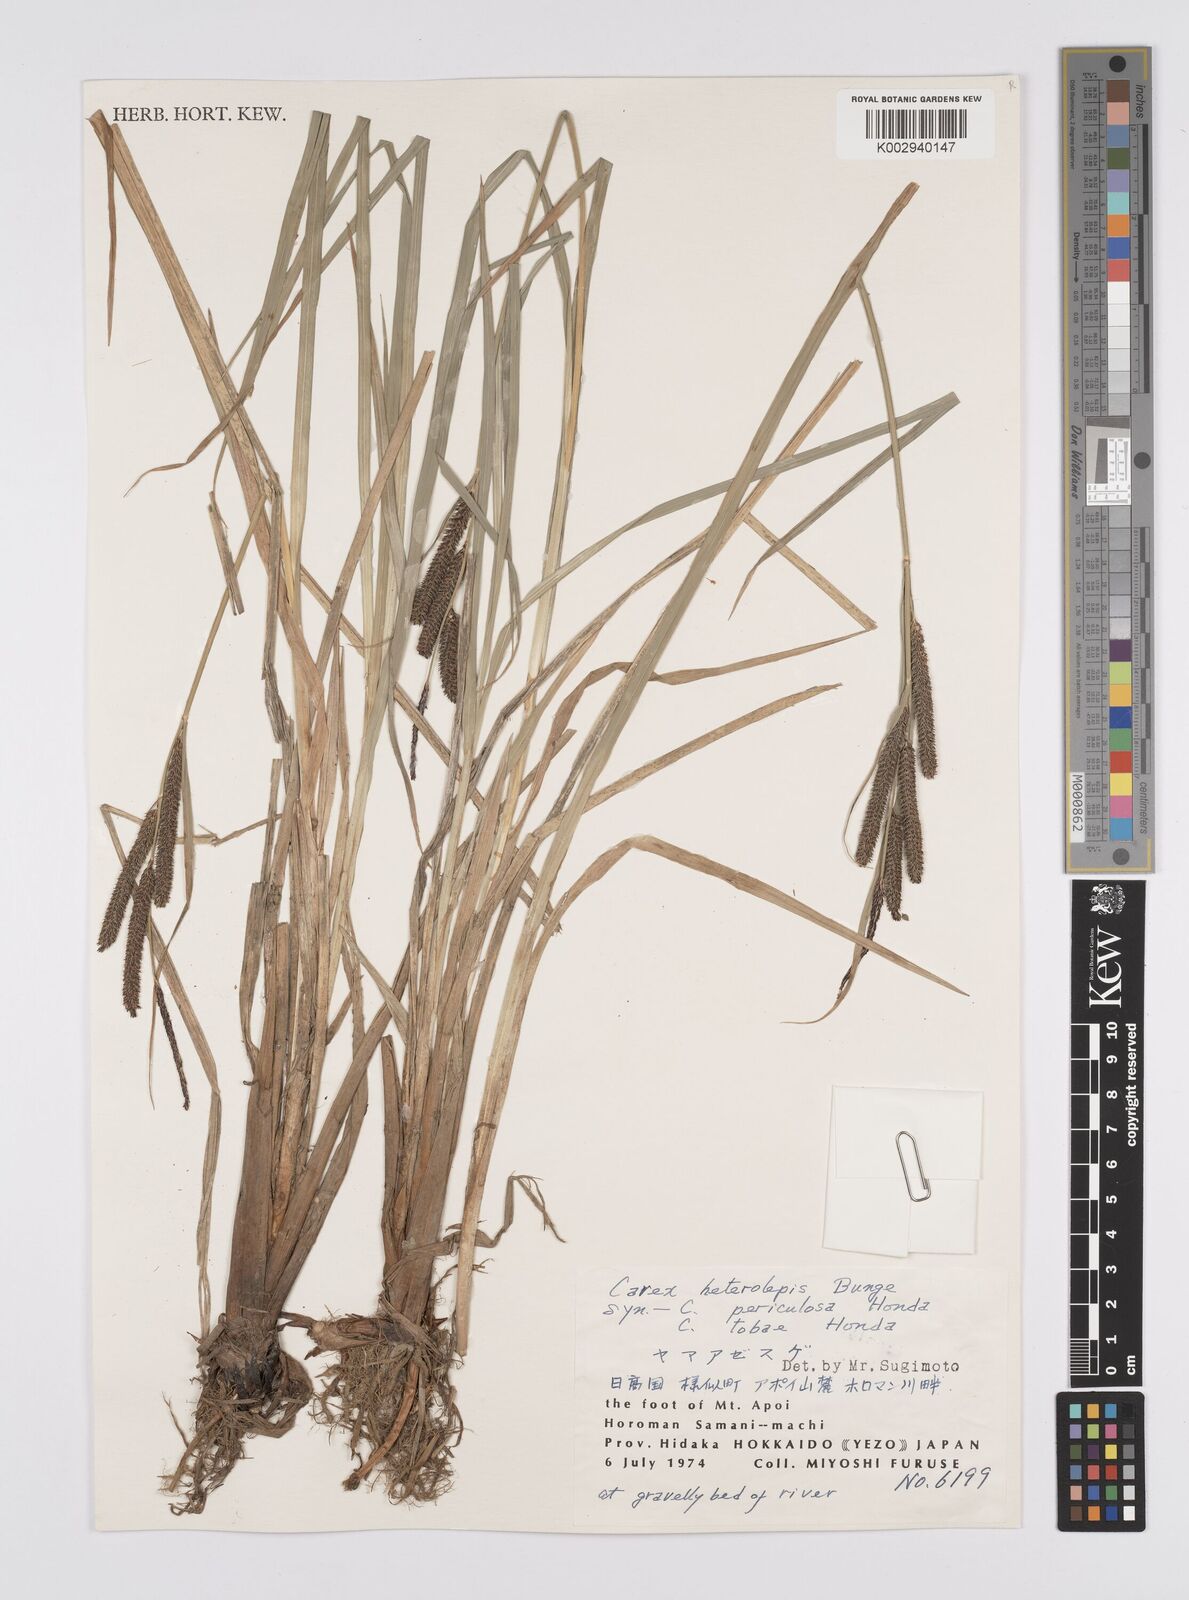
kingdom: Plantae
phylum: Tracheophyta
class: Liliopsida
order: Poales
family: Cyperaceae
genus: Carex
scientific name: Carex cruenta
